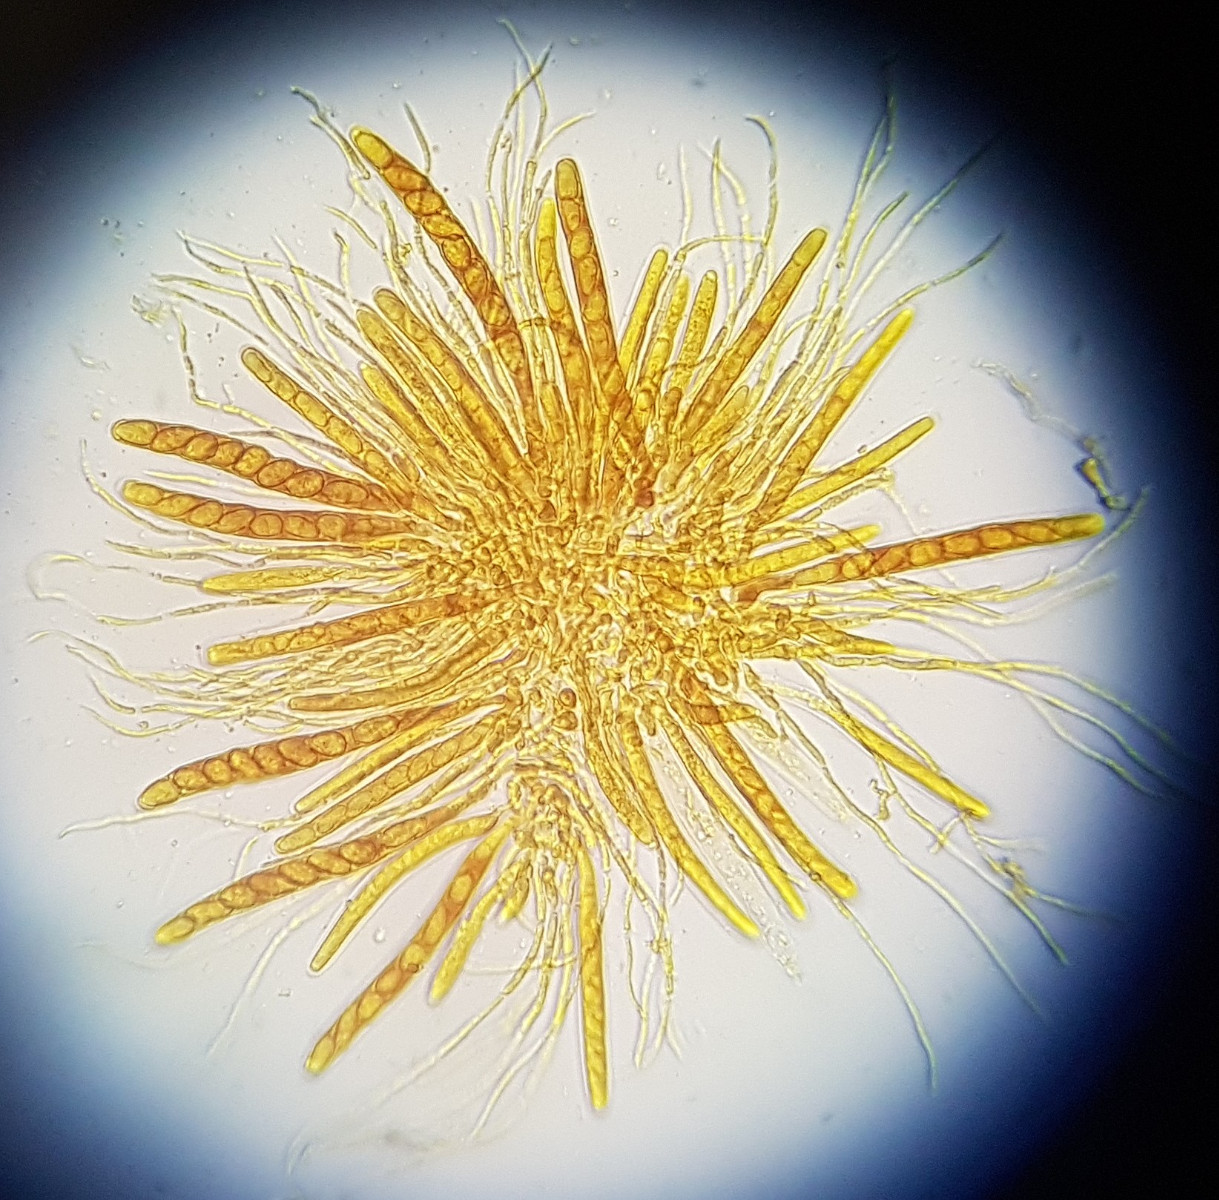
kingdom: Fungi
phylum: Ascomycota
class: Sordariomycetes
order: Phyllachorales
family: Phyllachoraceae
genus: Phyllachora
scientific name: Phyllachora graminis
